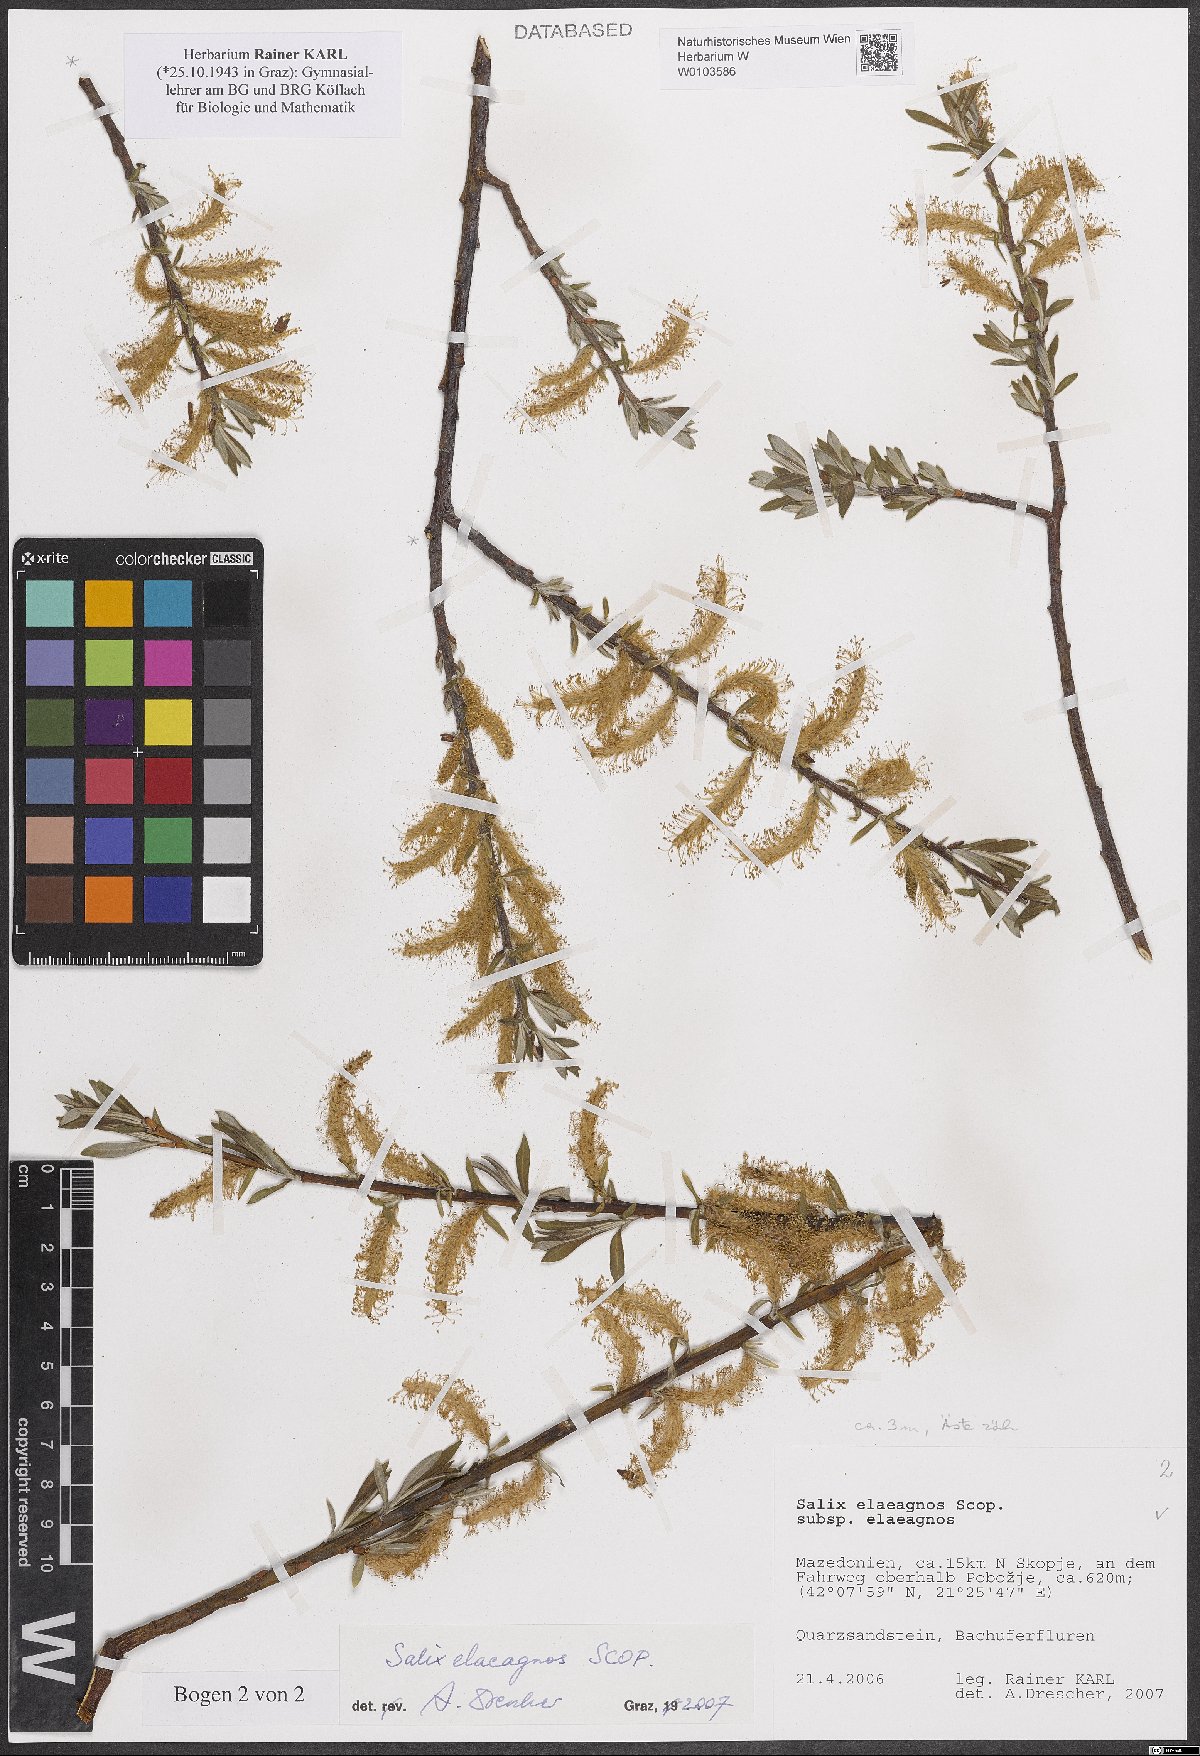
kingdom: Plantae
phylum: Tracheophyta
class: Magnoliopsida
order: Malpighiales
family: Salicaceae
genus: Salix
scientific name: Salix eleagnos
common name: Elaeagnus willow
